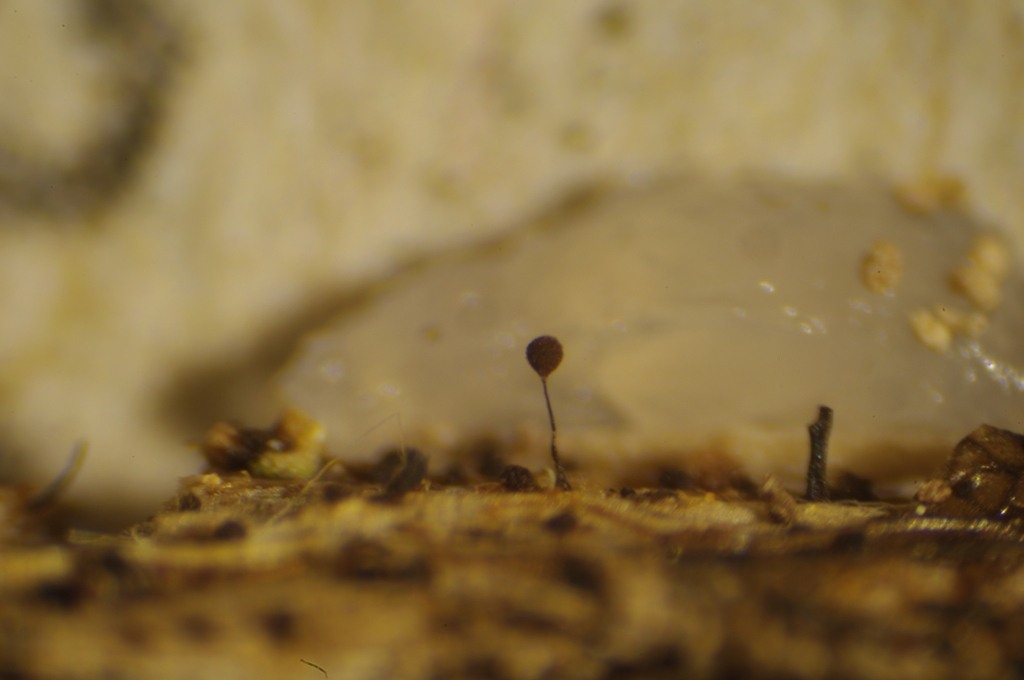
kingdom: Protozoa
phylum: Mycetozoa
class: Myxomycetes
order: Stemonitidales
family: Stemonitidaceae
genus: Paradiacheopsis
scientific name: Paradiacheopsis rigida
